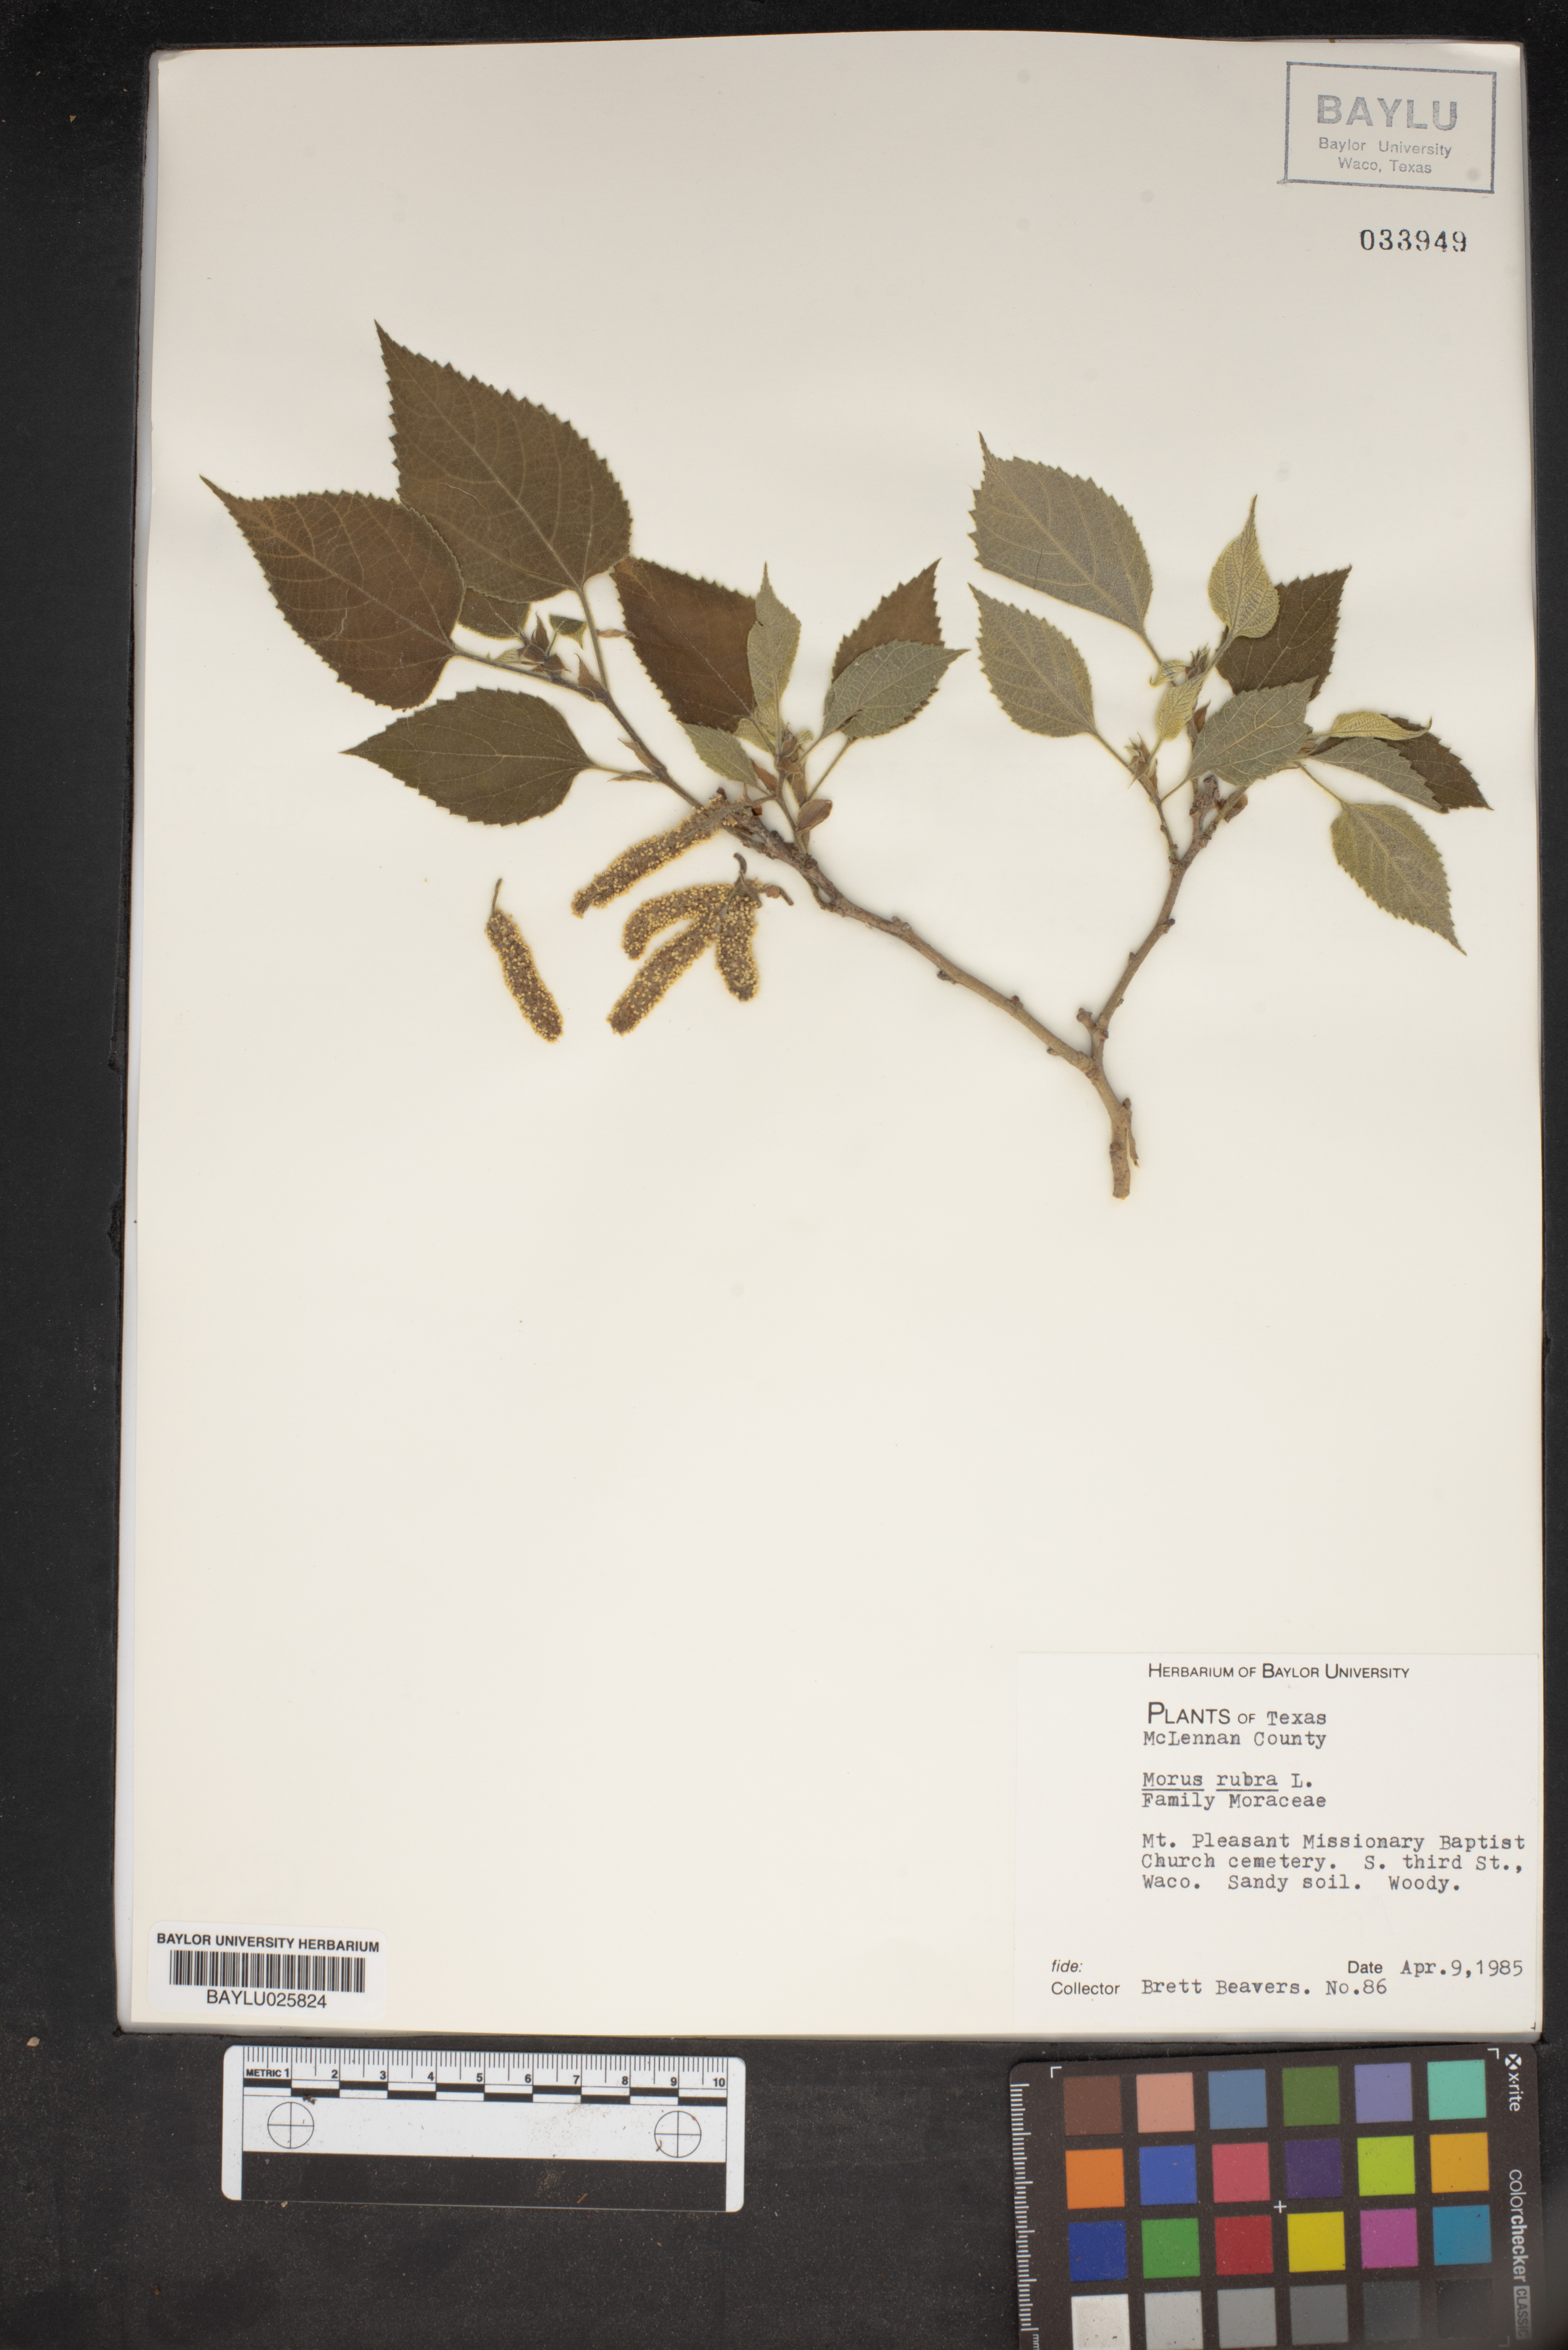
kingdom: Plantae
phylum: Tracheophyta
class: Magnoliopsida
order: Rosales
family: Moraceae
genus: Morus
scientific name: Morus rubra
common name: Red mulberry
